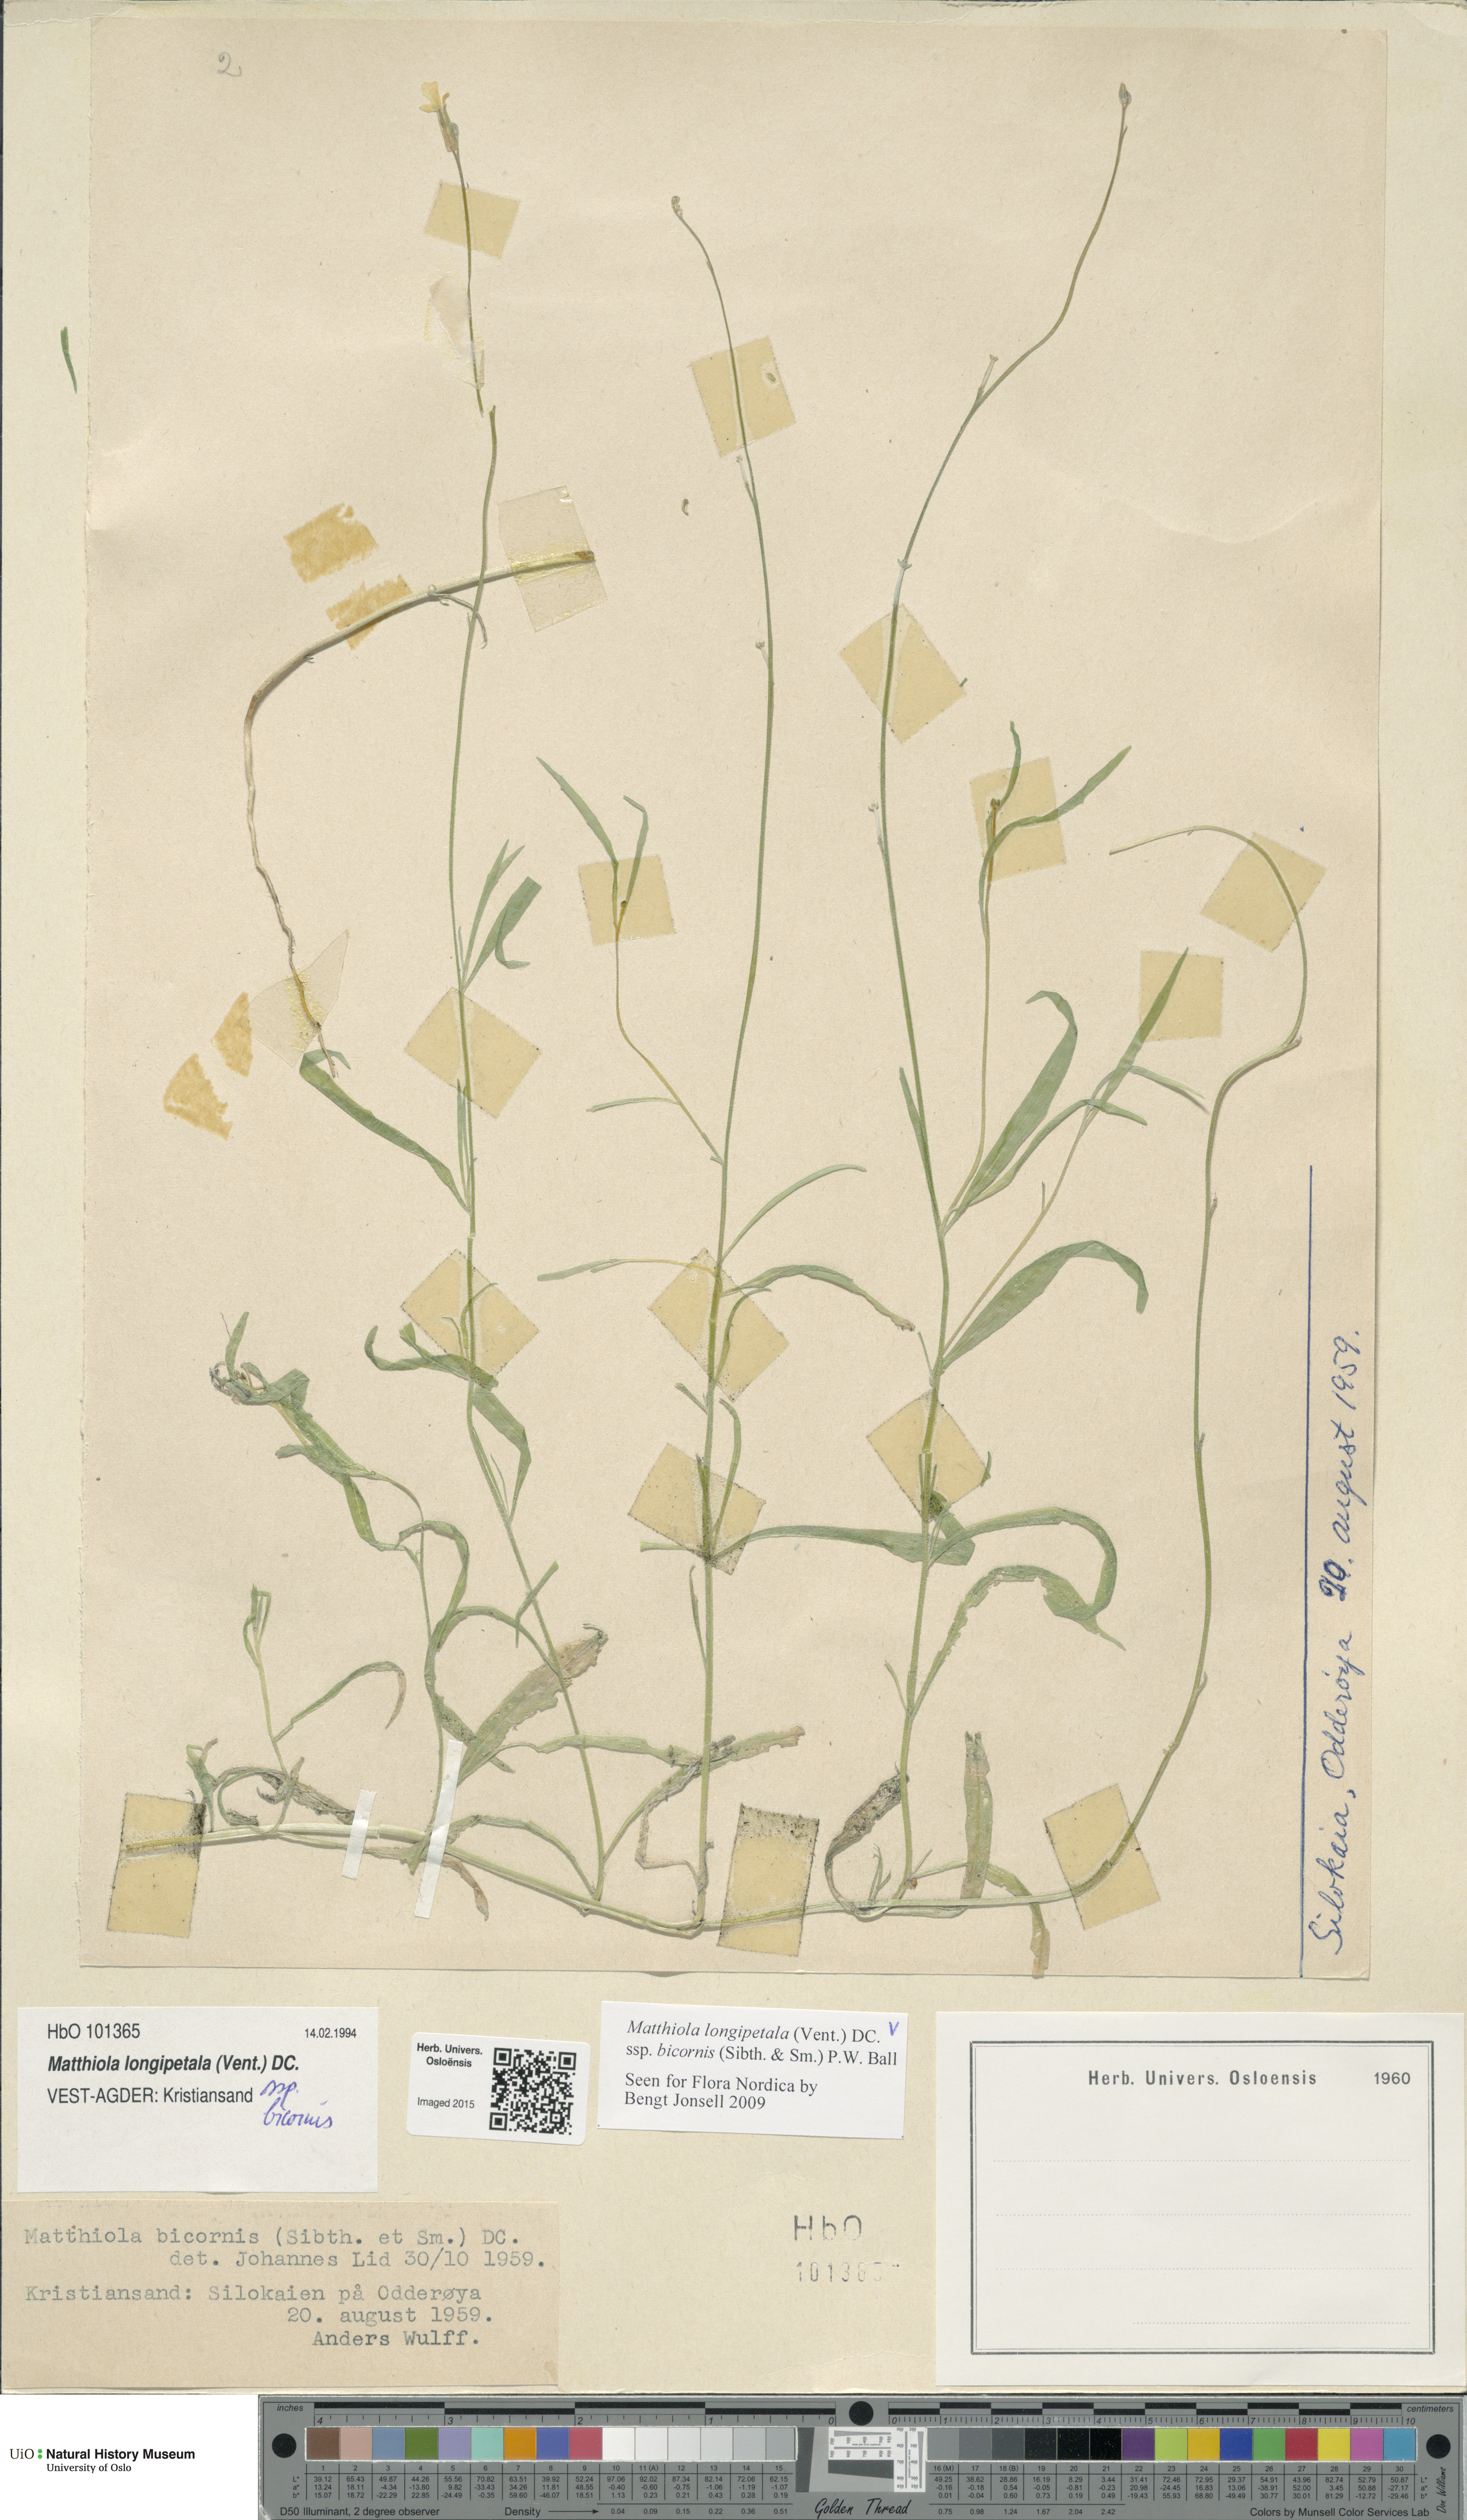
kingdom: Plantae
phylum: Tracheophyta
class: Magnoliopsida
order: Brassicales
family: Brassicaceae
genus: Matthiola
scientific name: Matthiola longipetala
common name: Night-scented stock
